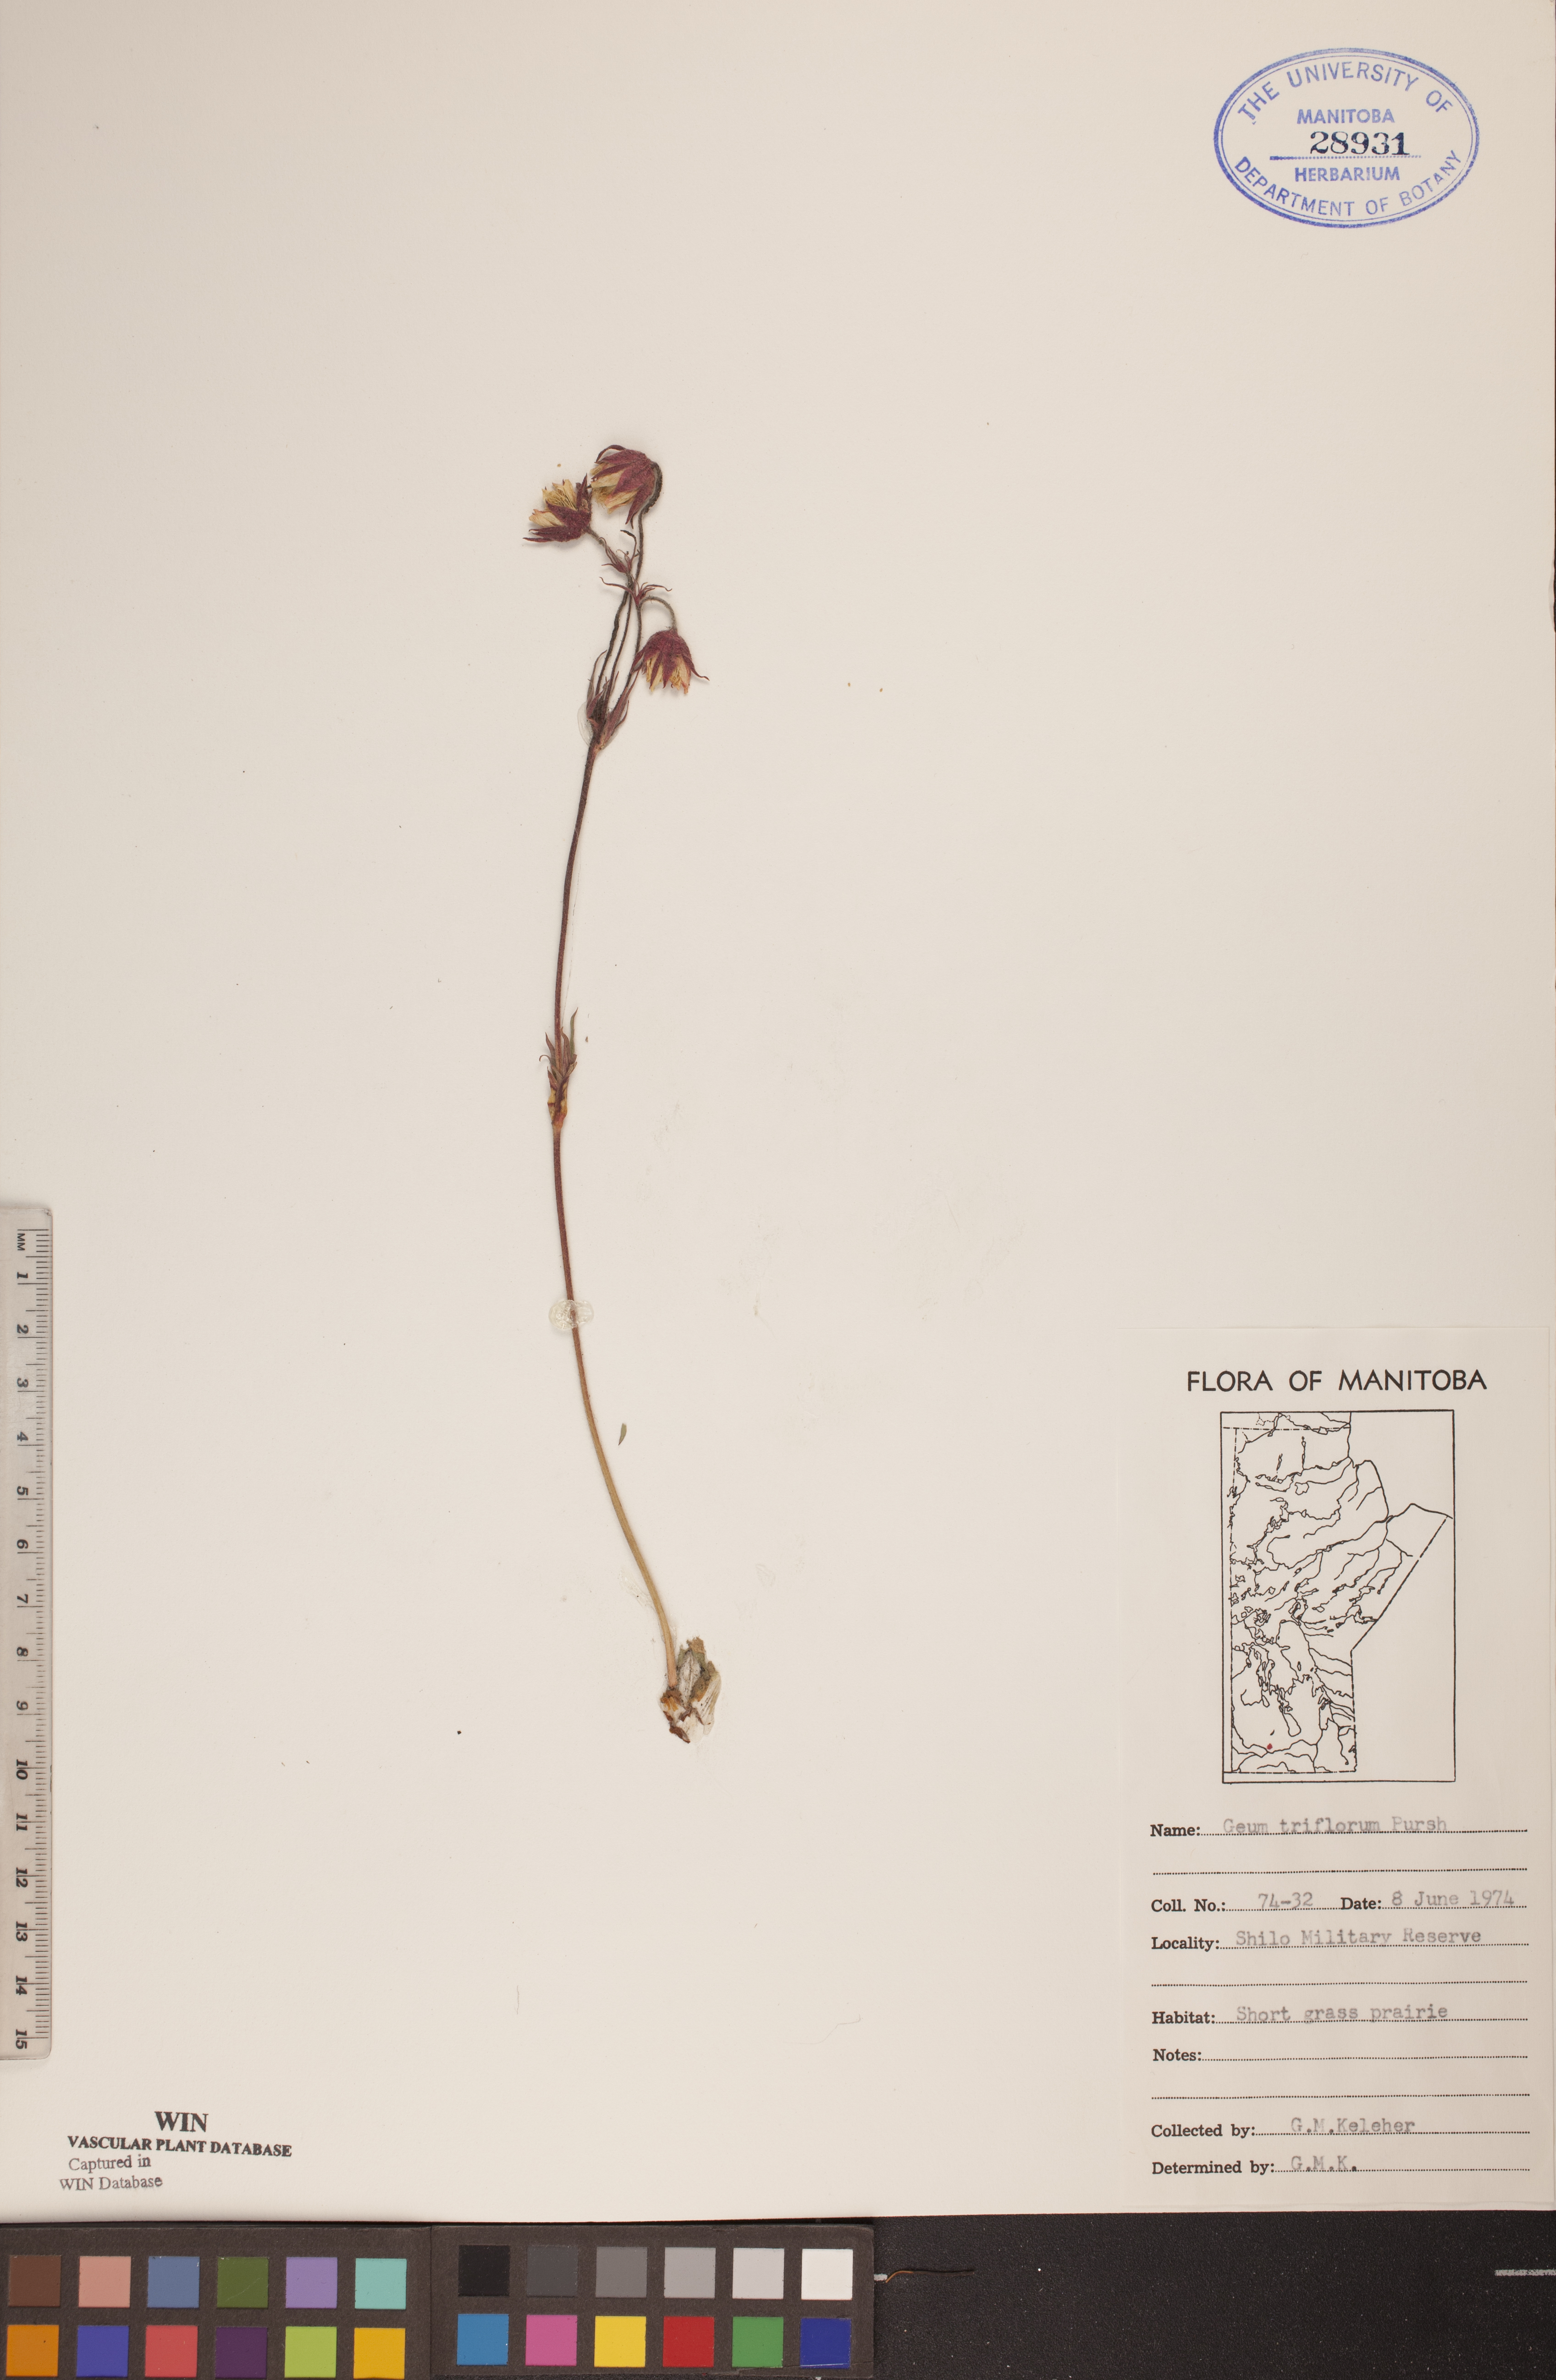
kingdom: Plantae
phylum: Tracheophyta
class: Magnoliopsida
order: Rosales
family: Rosaceae
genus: Geum
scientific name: Geum triflorum
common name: Old man's whiskers
